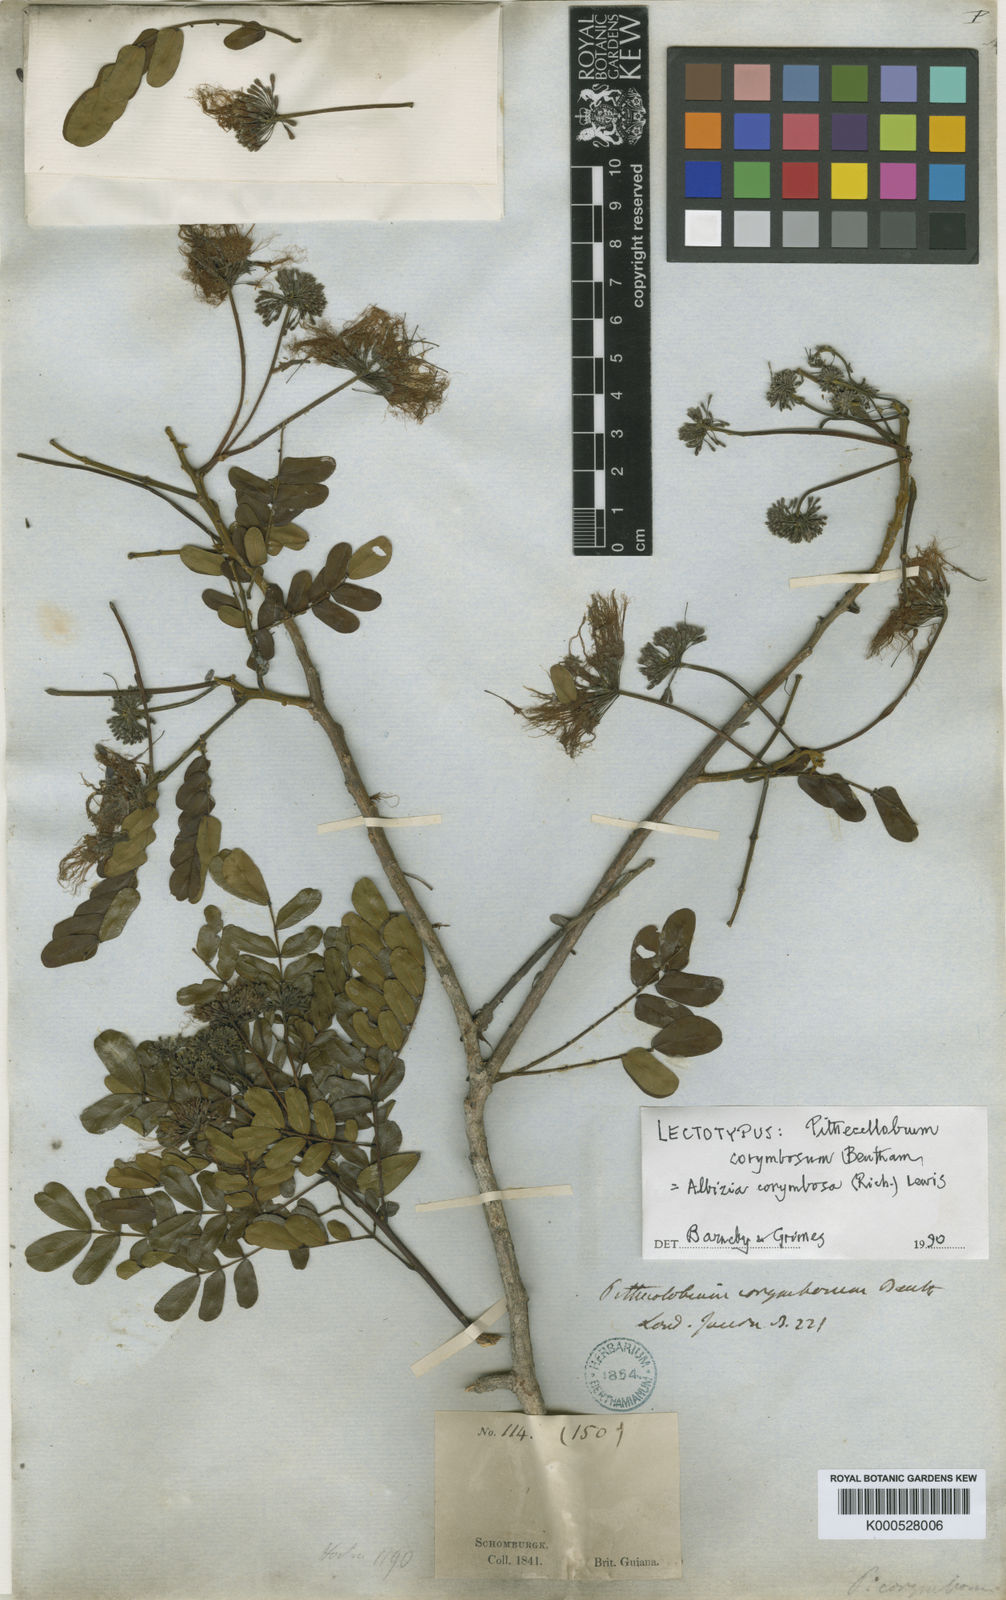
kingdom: Plantae
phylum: Tracheophyta
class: Magnoliopsida
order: Fabales
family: Fabaceae
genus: Hydrochorea
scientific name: Hydrochorea corymbosa
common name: Swamp manariballi
